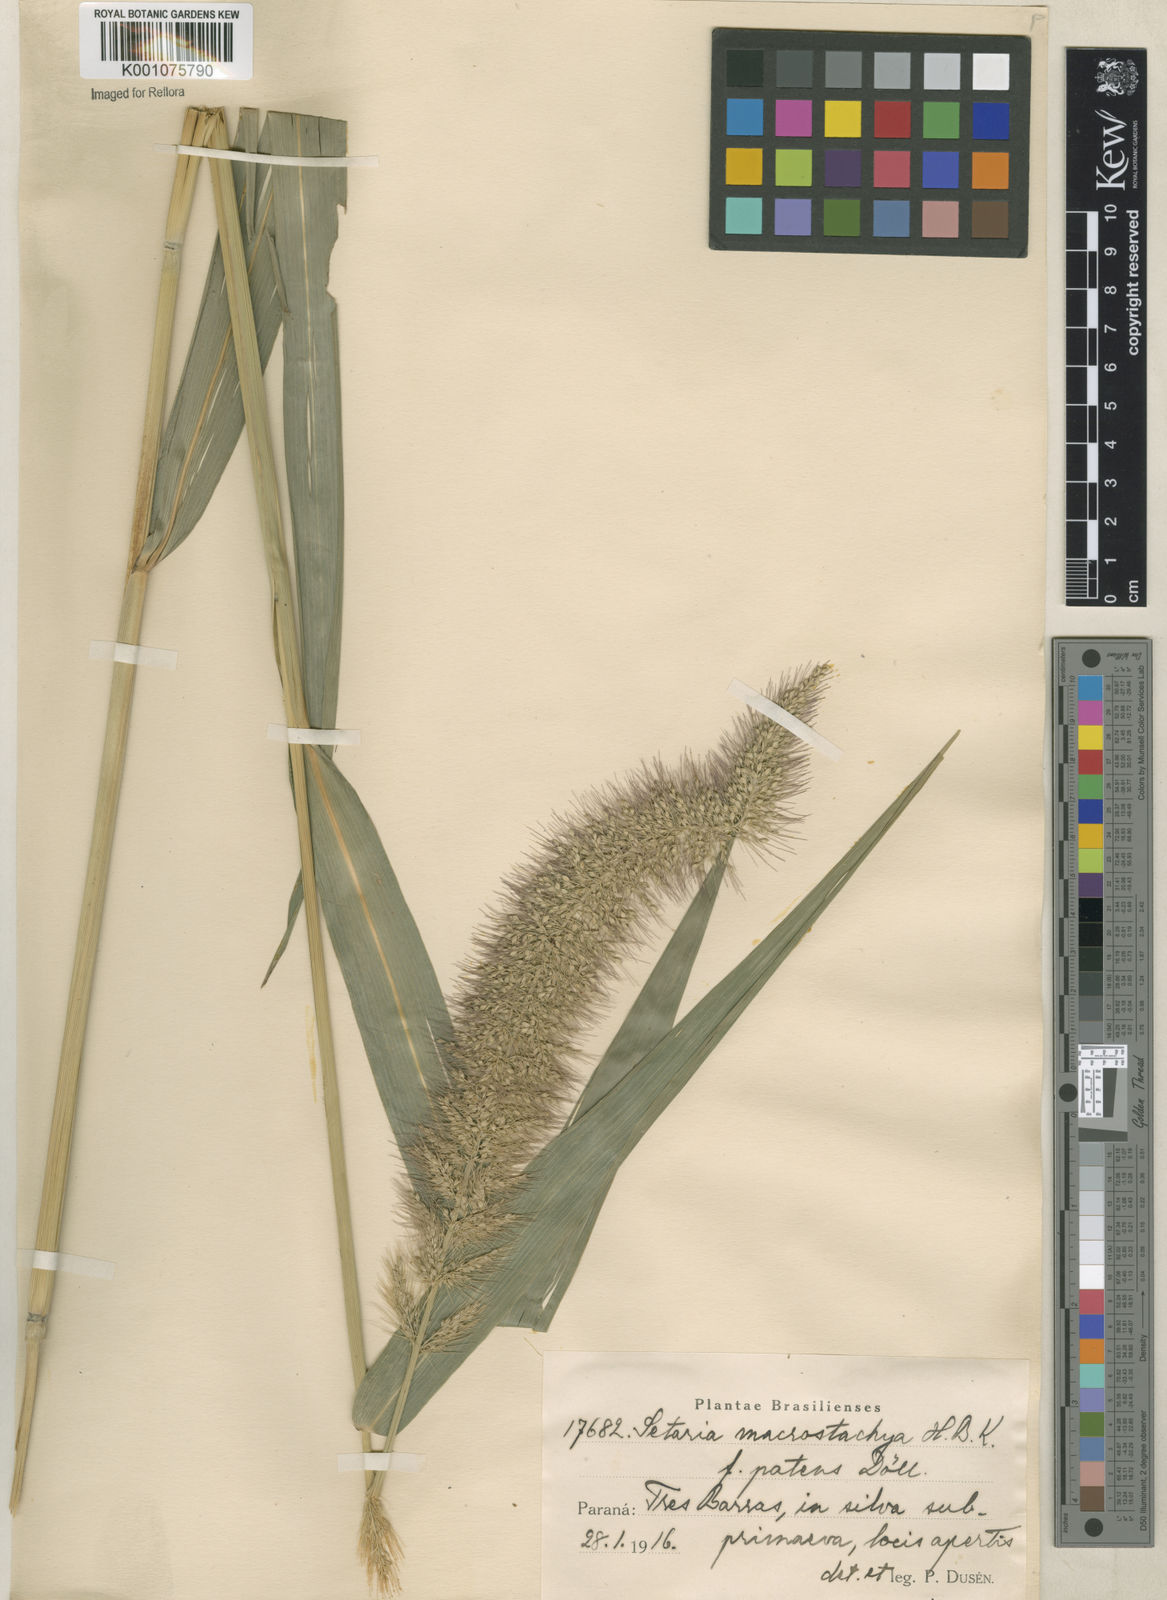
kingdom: Plantae
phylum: Tracheophyta
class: Liliopsida
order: Poales
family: Poaceae
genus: Setaria
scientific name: Setaria vulpiseta
